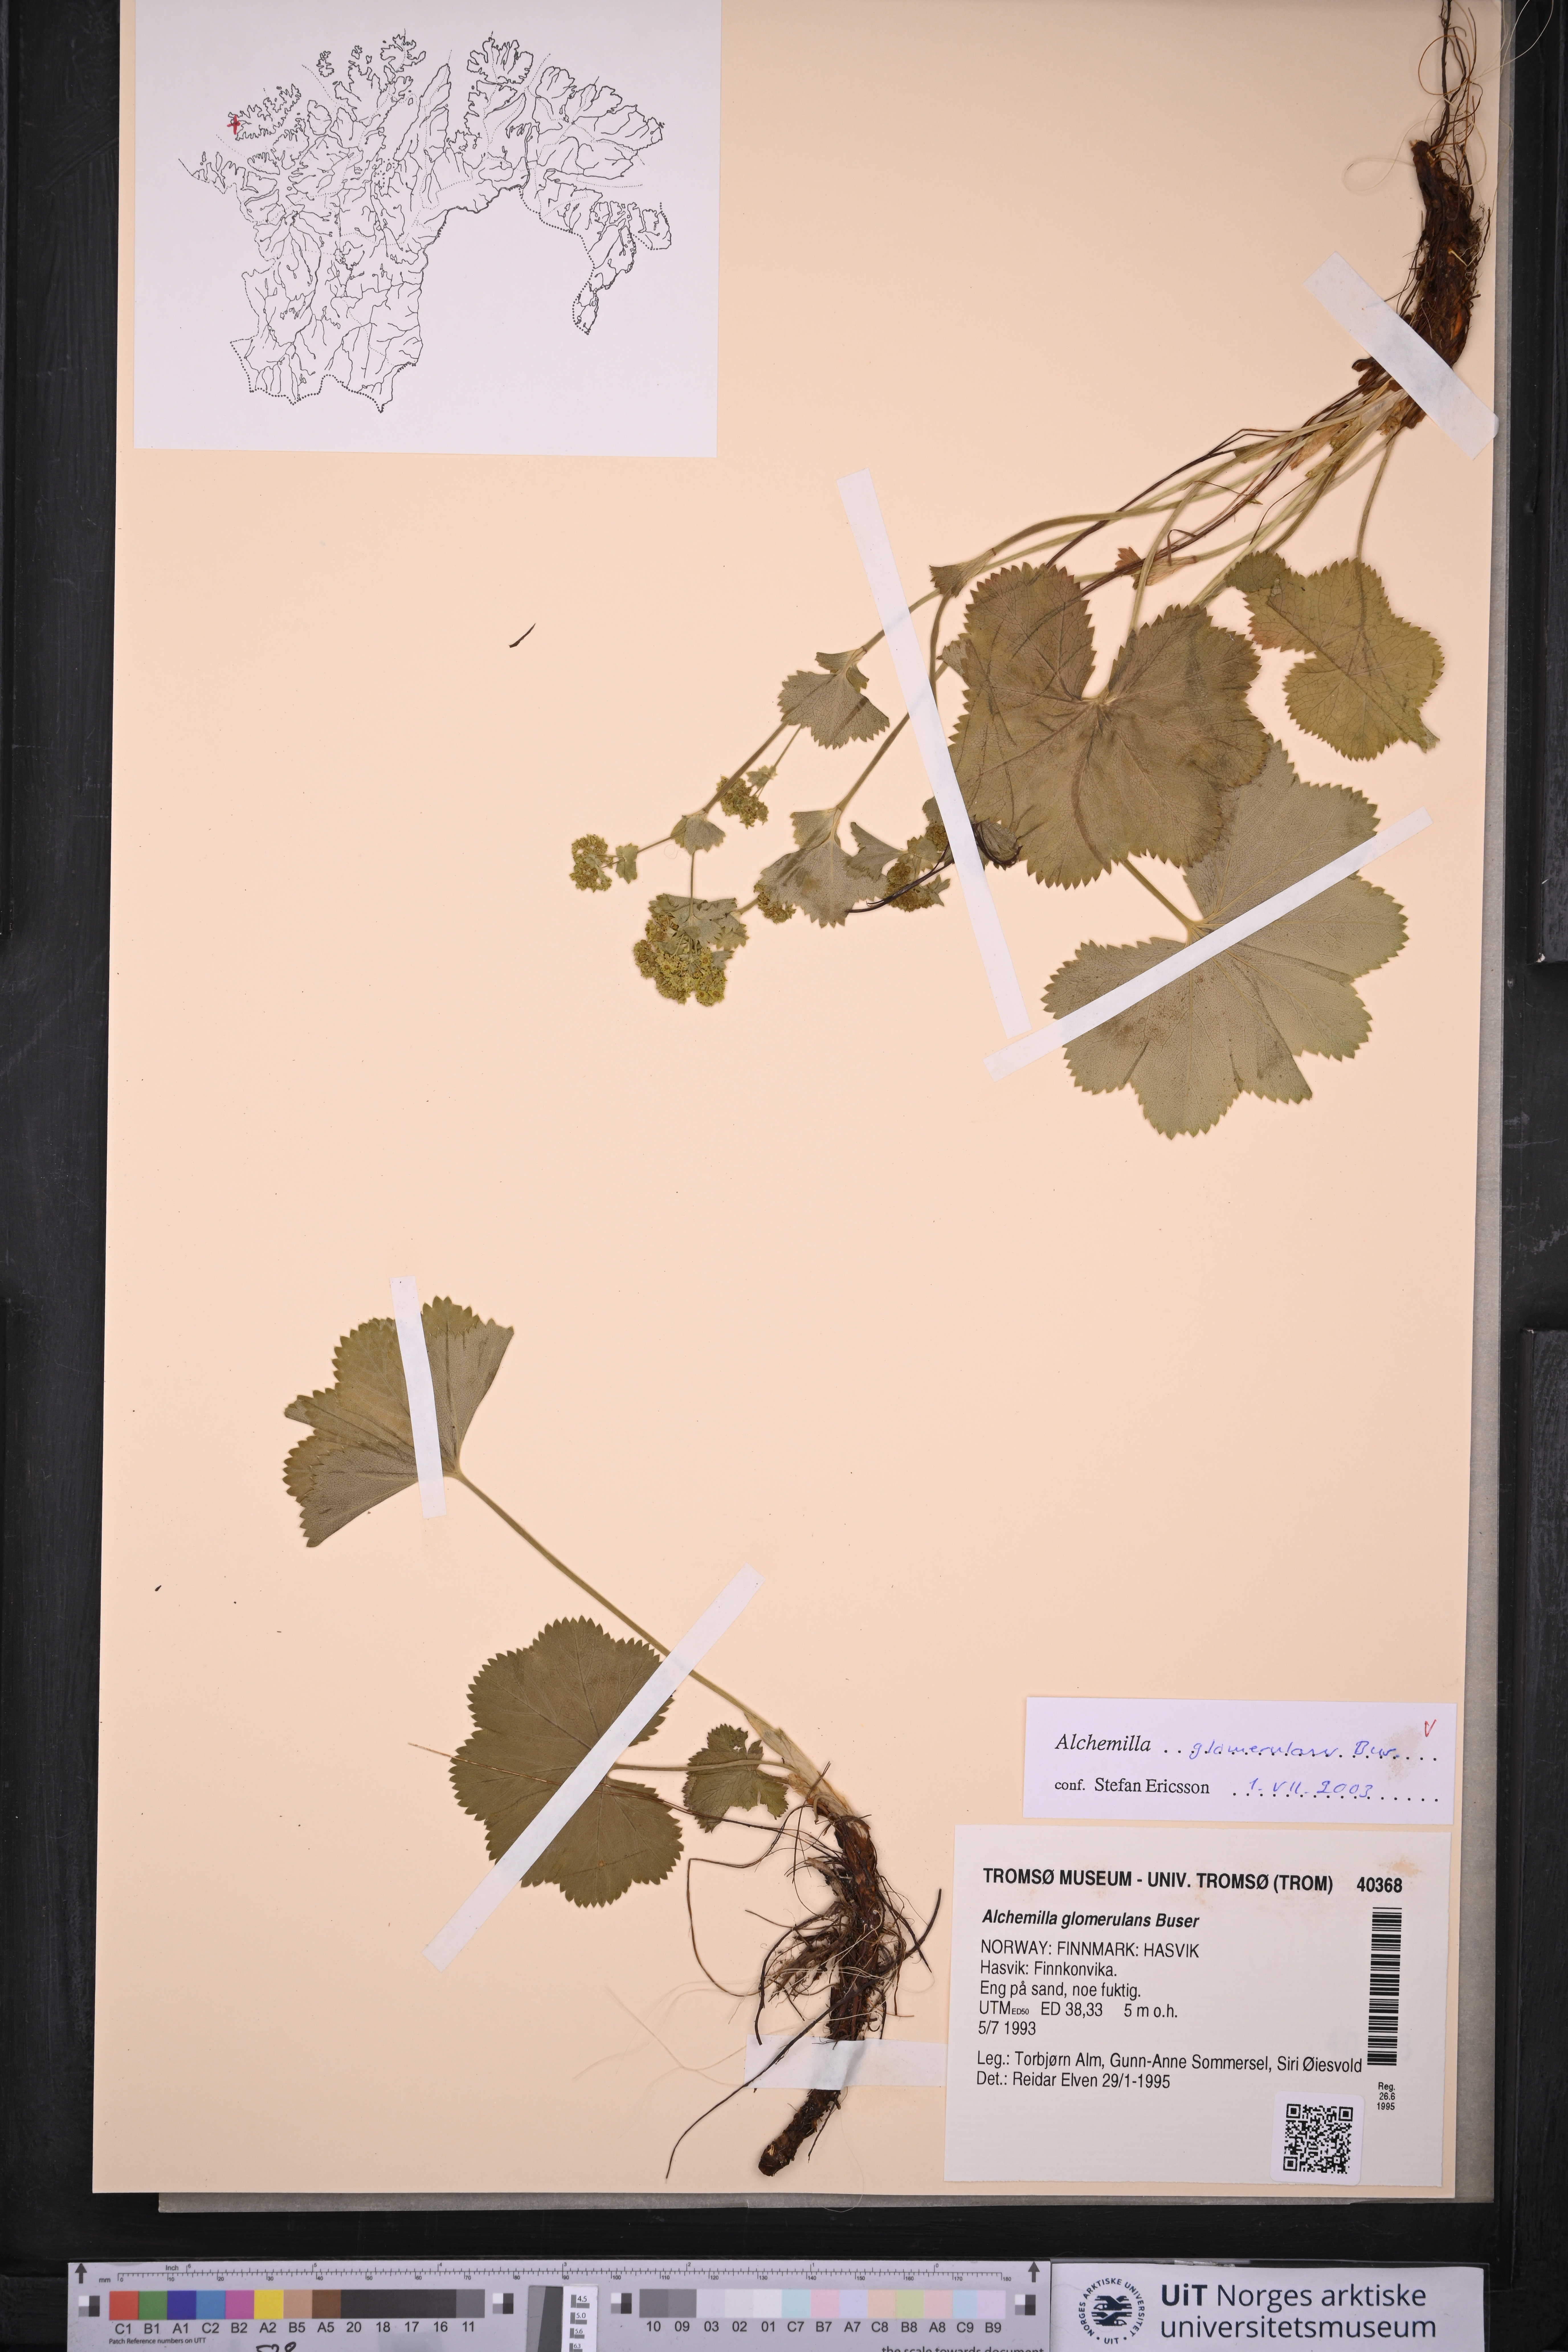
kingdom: Plantae
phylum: Tracheophyta
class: Magnoliopsida
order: Rosales
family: Rosaceae
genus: Alchemilla
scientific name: Alchemilla glomerulans
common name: Clustered lady's mantle
